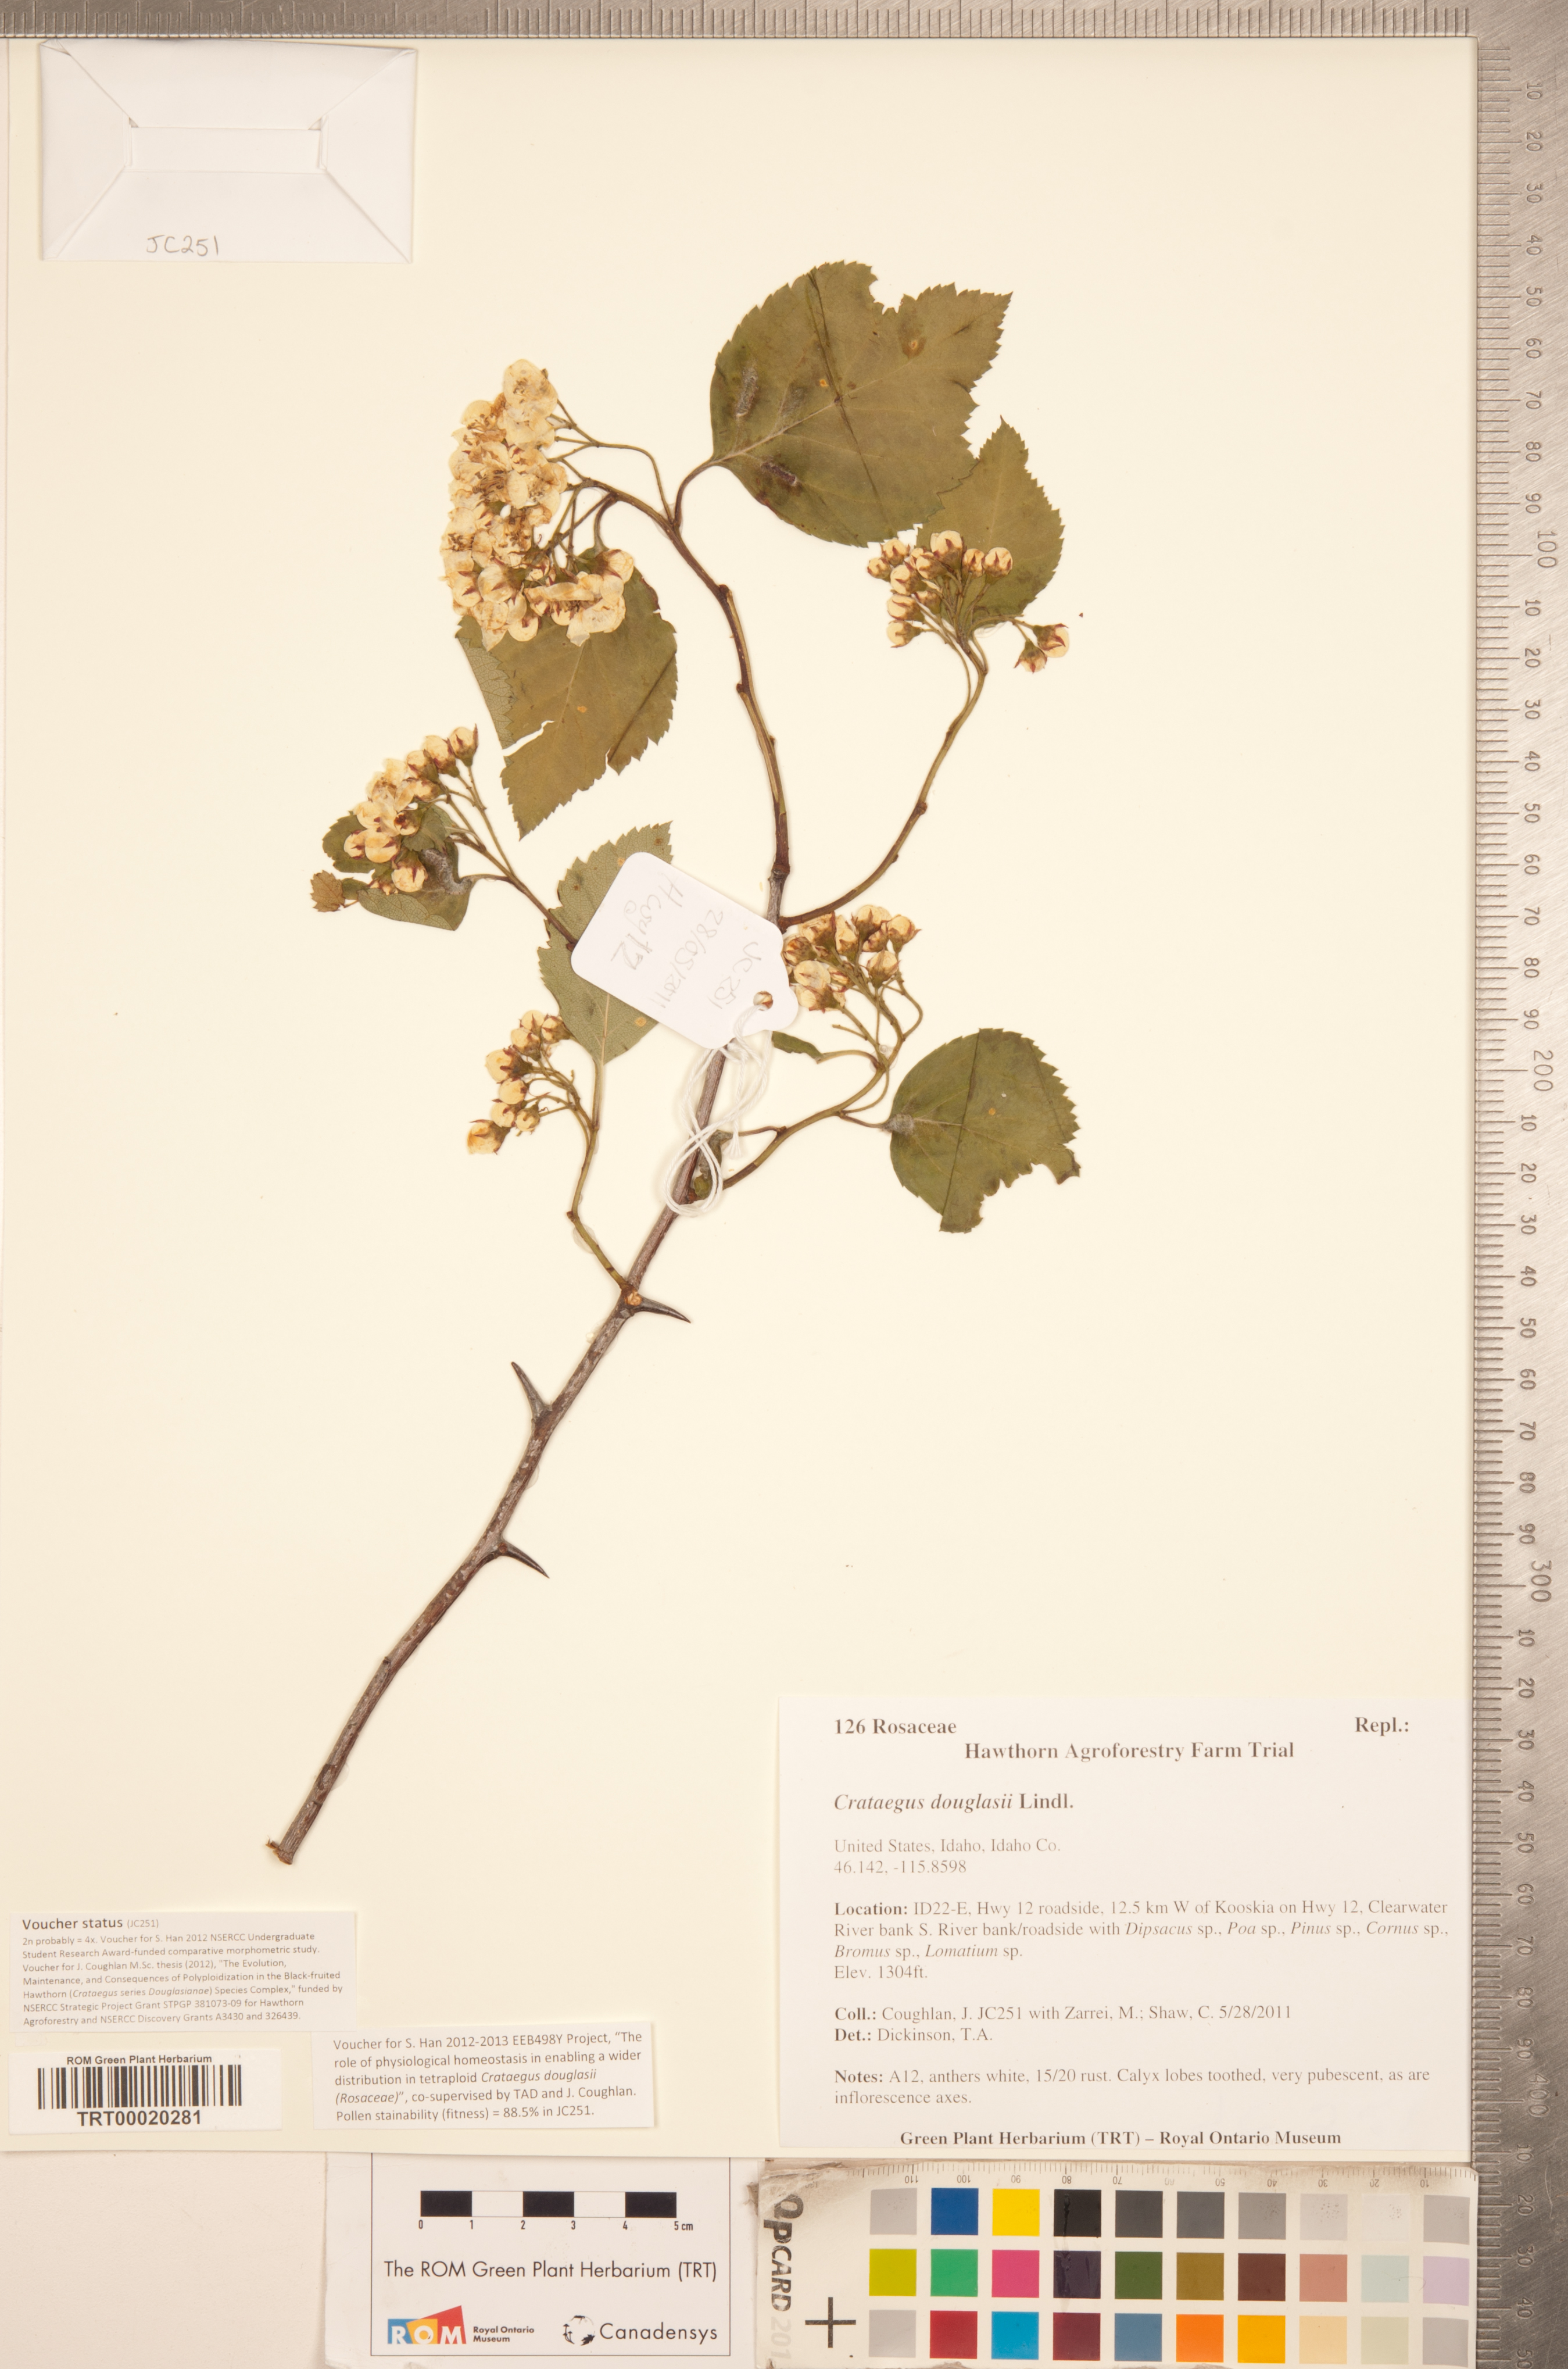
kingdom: Plantae
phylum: Tracheophyta
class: Magnoliopsida
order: Rosales
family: Rosaceae
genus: Crataegus
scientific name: Crataegus douglasii
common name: Black hawthorn
